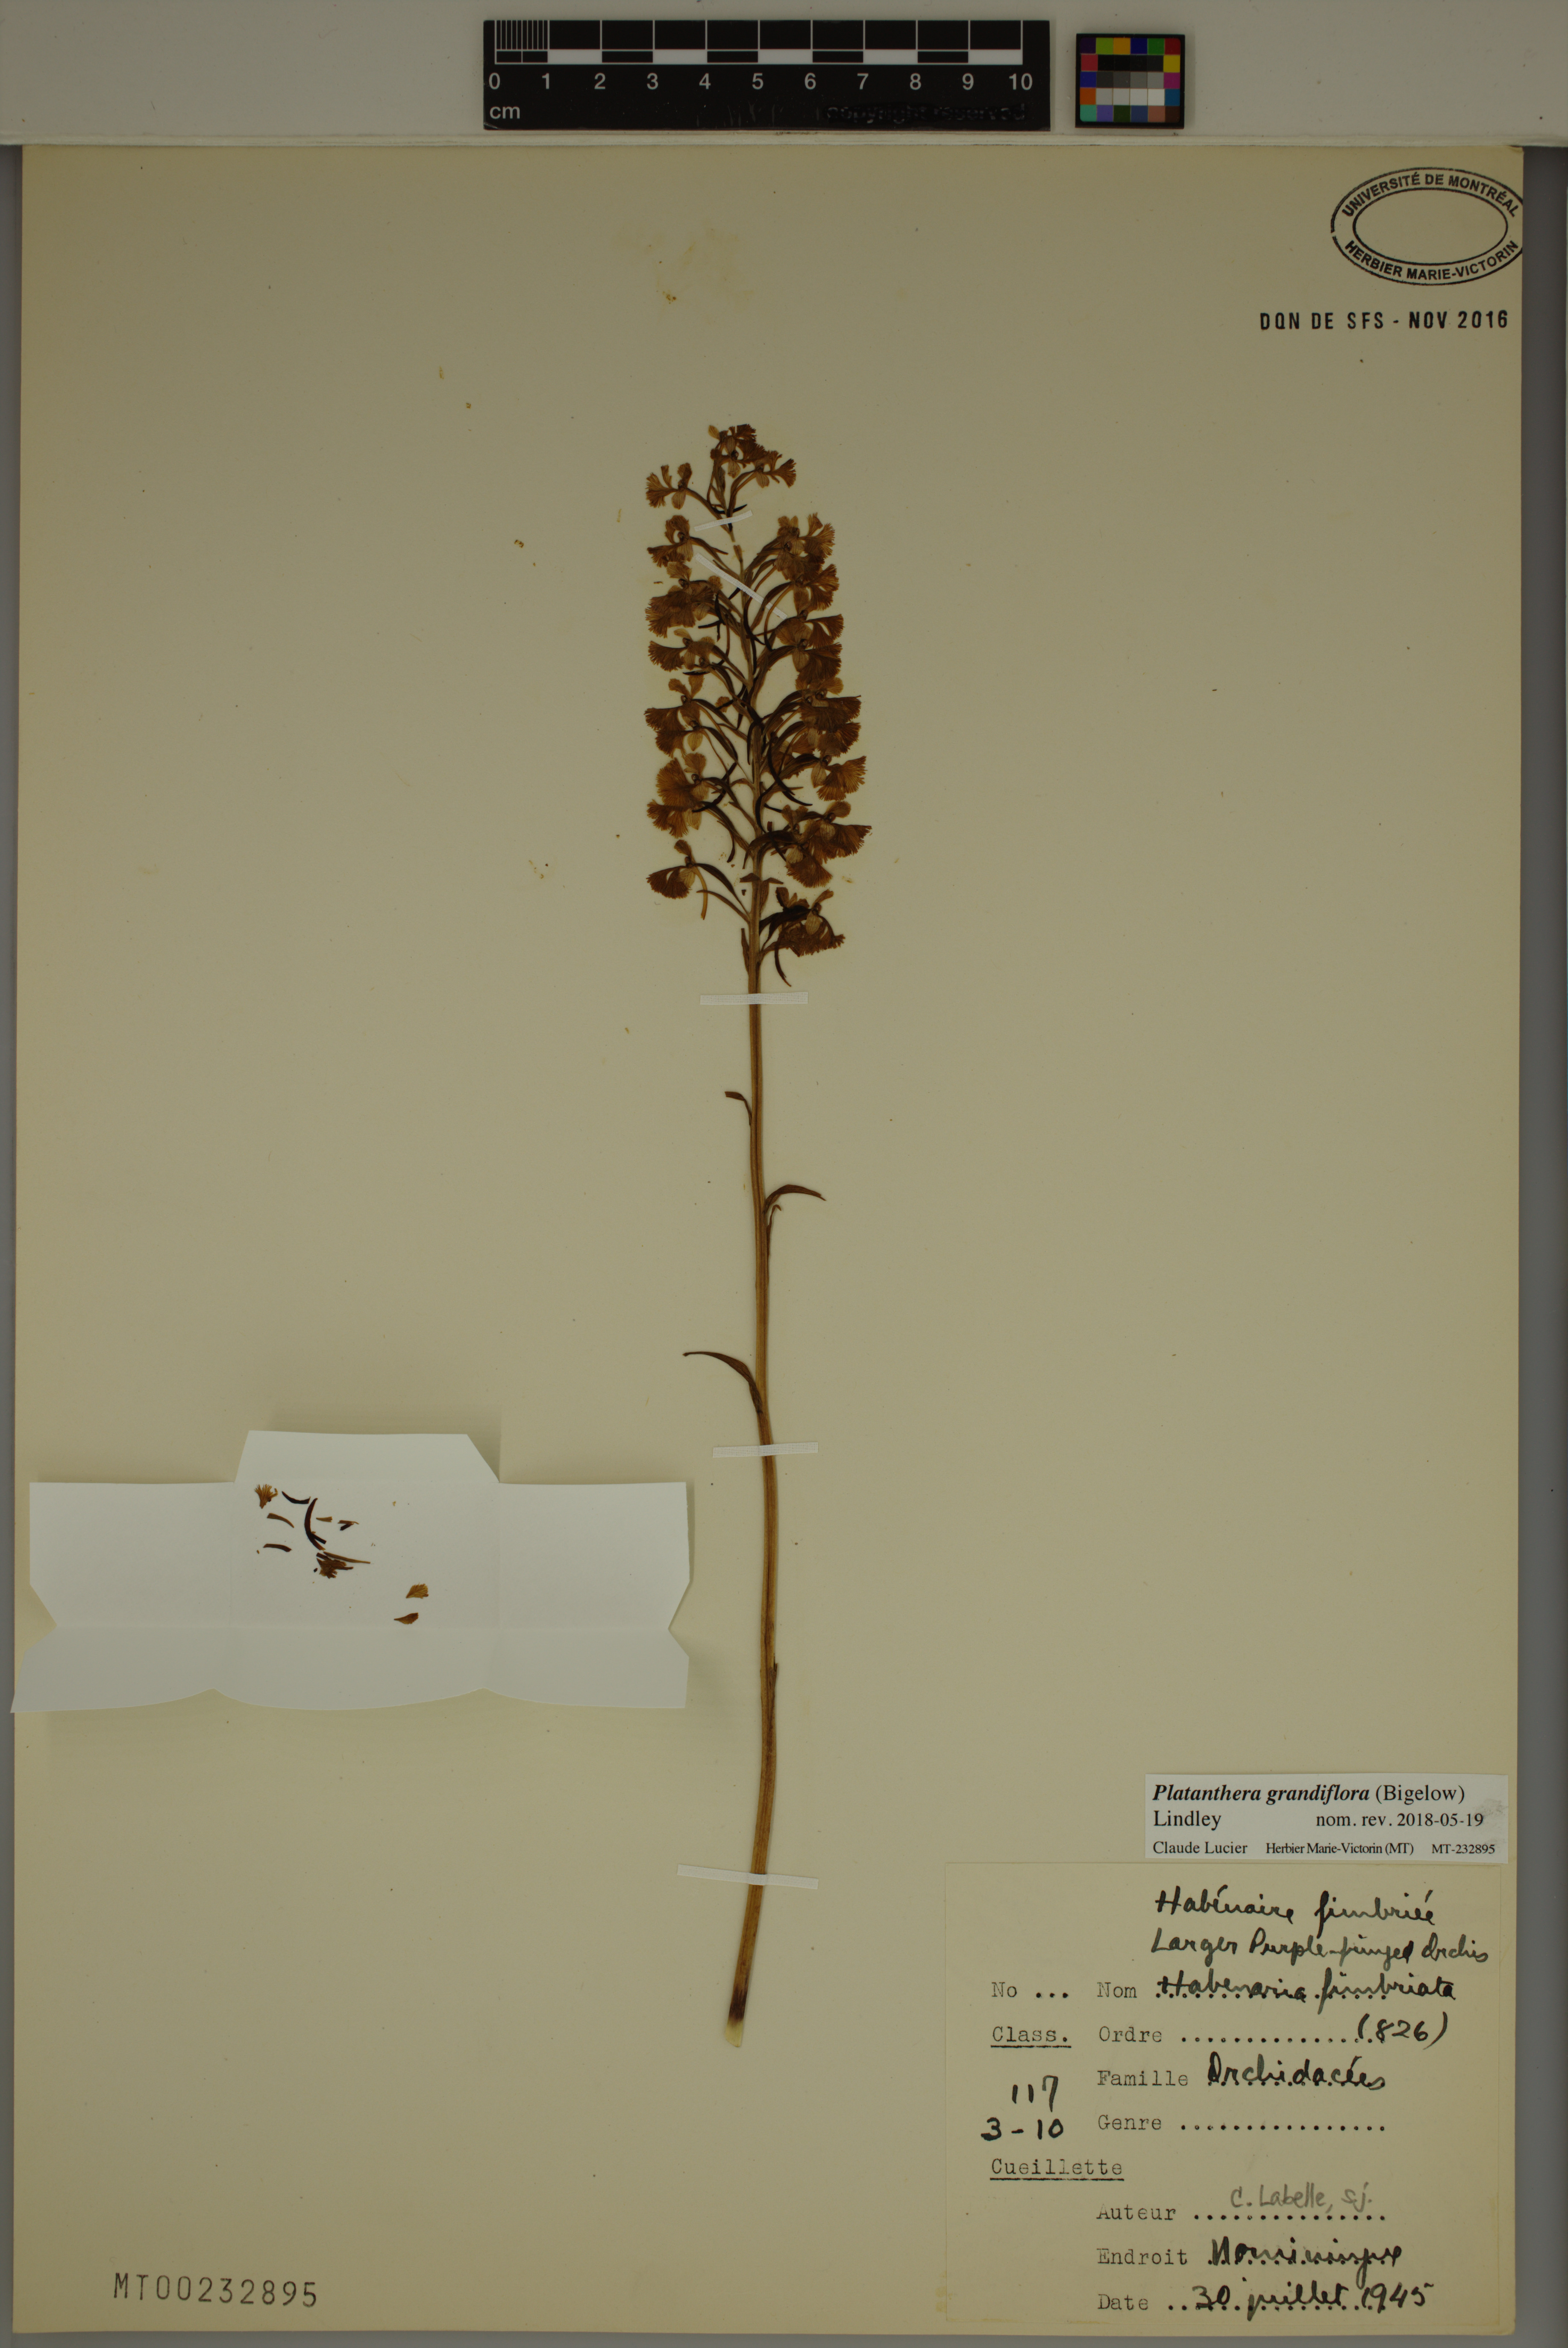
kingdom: Plantae
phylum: Tracheophyta
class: Liliopsida
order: Asparagales
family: Orchidaceae
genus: Platanthera
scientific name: Platanthera grandiflora
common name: Greater purple fringed orchid
